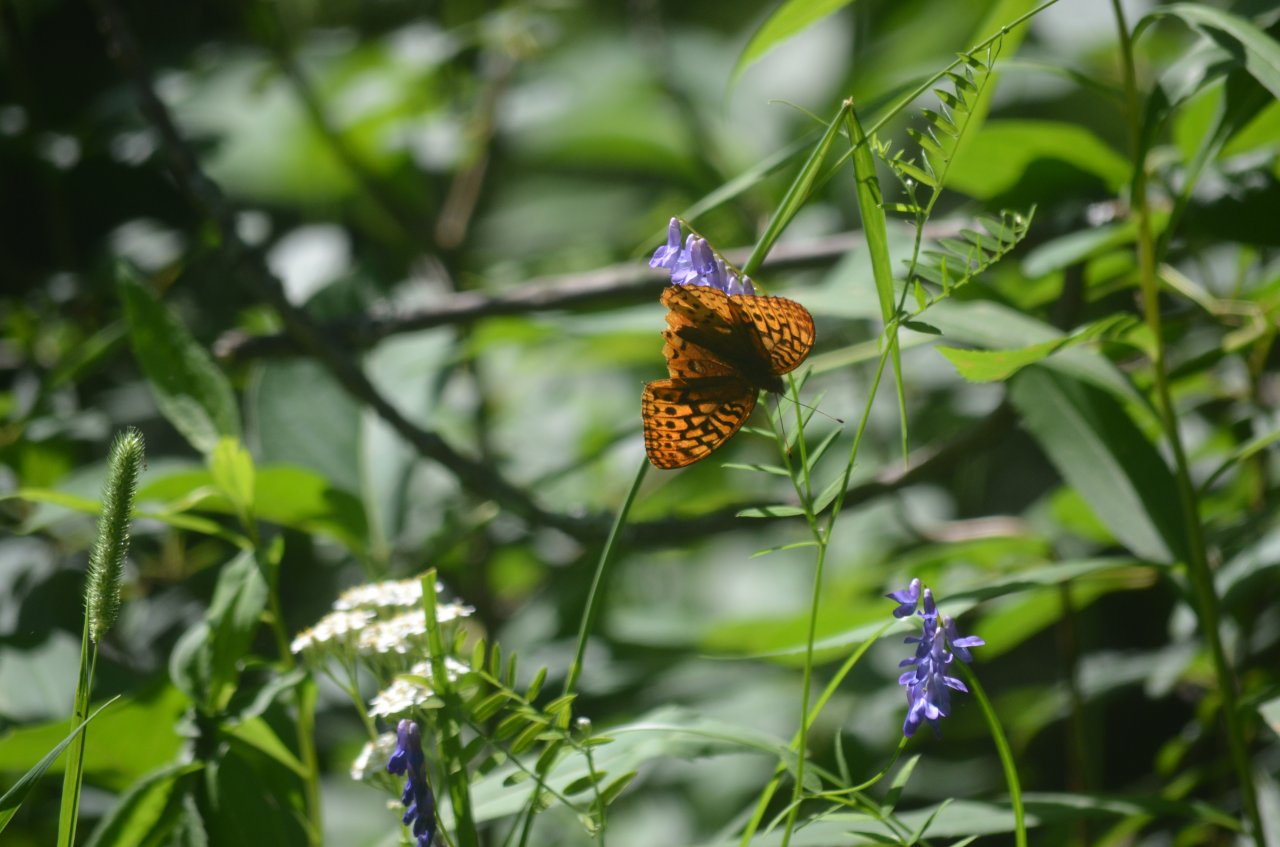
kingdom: Animalia
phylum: Arthropoda
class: Insecta
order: Lepidoptera
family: Nymphalidae
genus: Speyeria
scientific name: Speyeria cybele
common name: Great Spangled Fritillary
